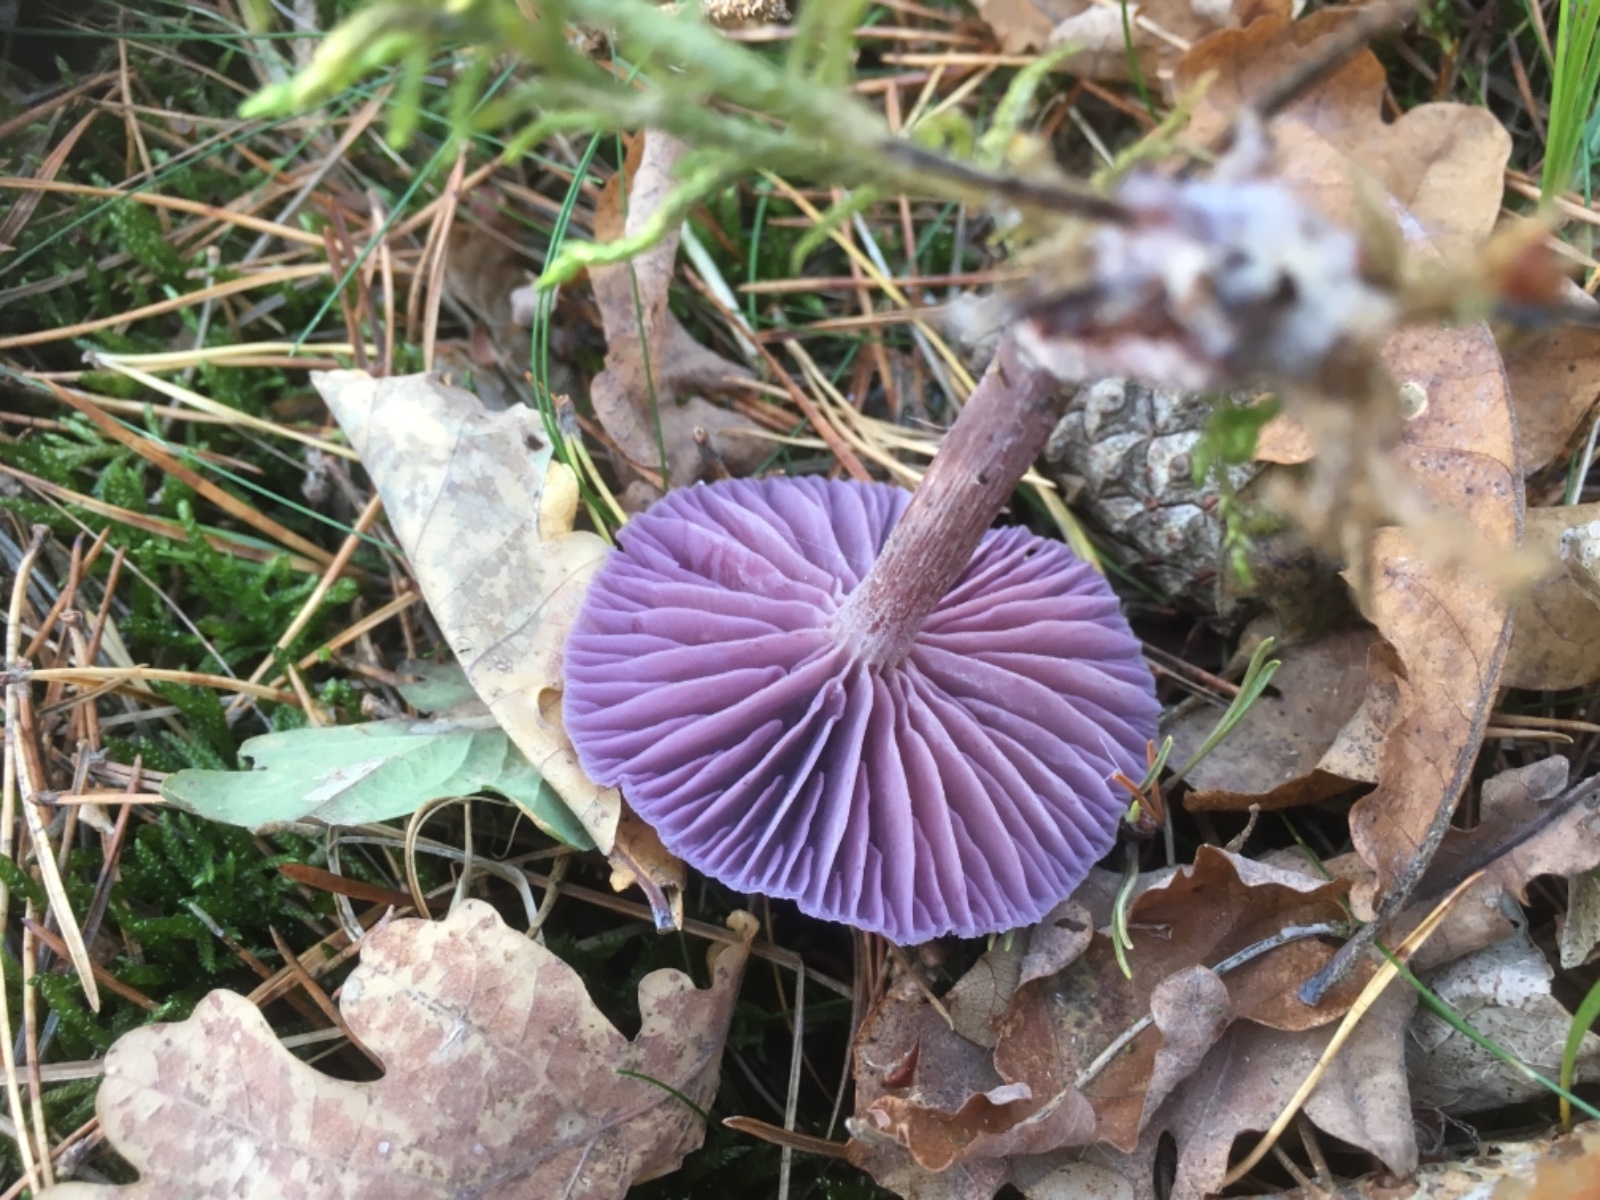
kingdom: Fungi
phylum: Basidiomycota
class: Agaricomycetes
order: Agaricales
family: Hydnangiaceae
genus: Laccaria
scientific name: Laccaria amethystina
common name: violet ametysthat
